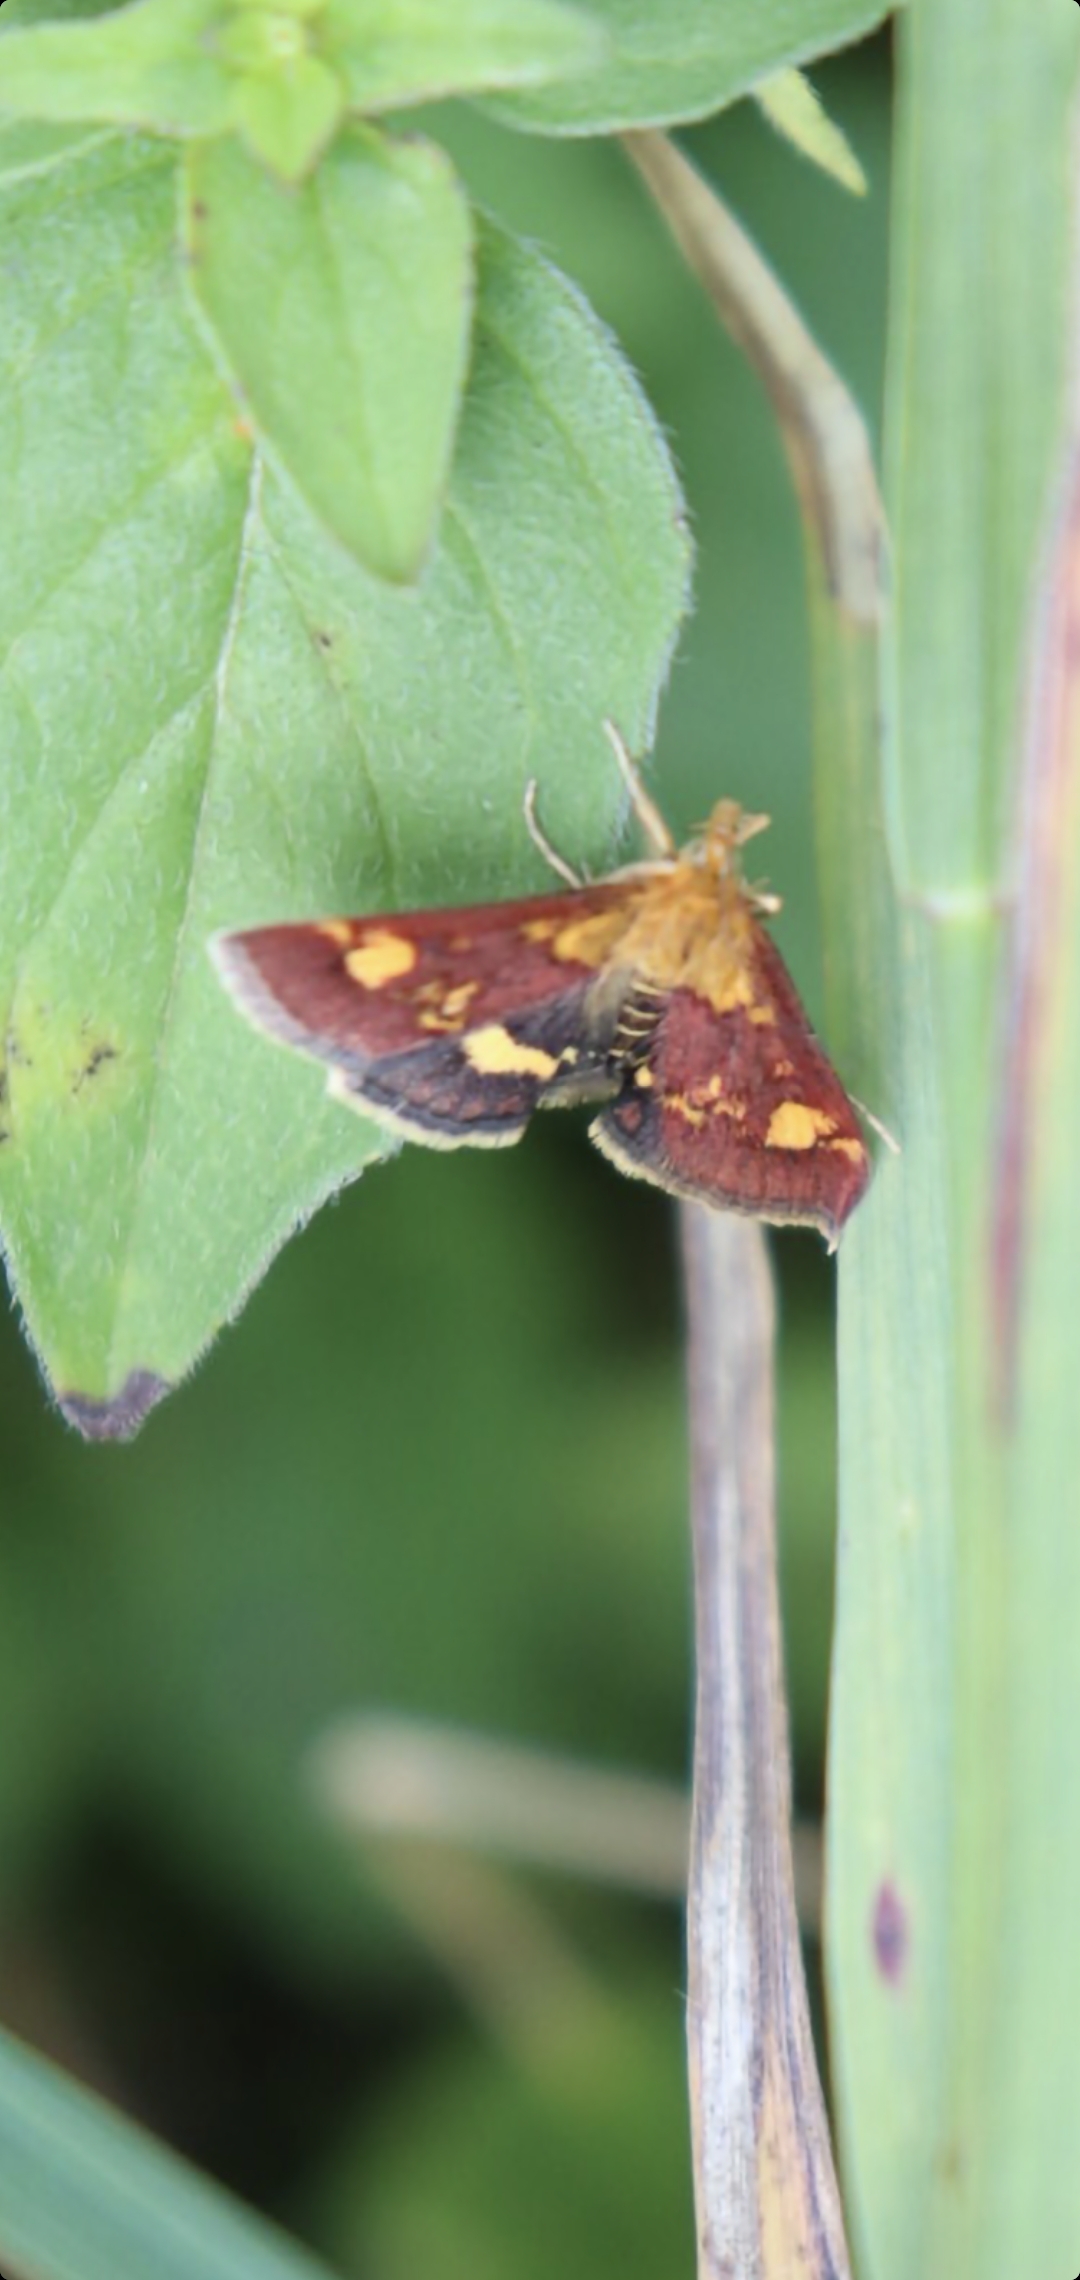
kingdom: Animalia
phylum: Arthropoda
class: Insecta
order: Lepidoptera
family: Crambidae
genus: Pyrausta
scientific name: Pyrausta aurata
